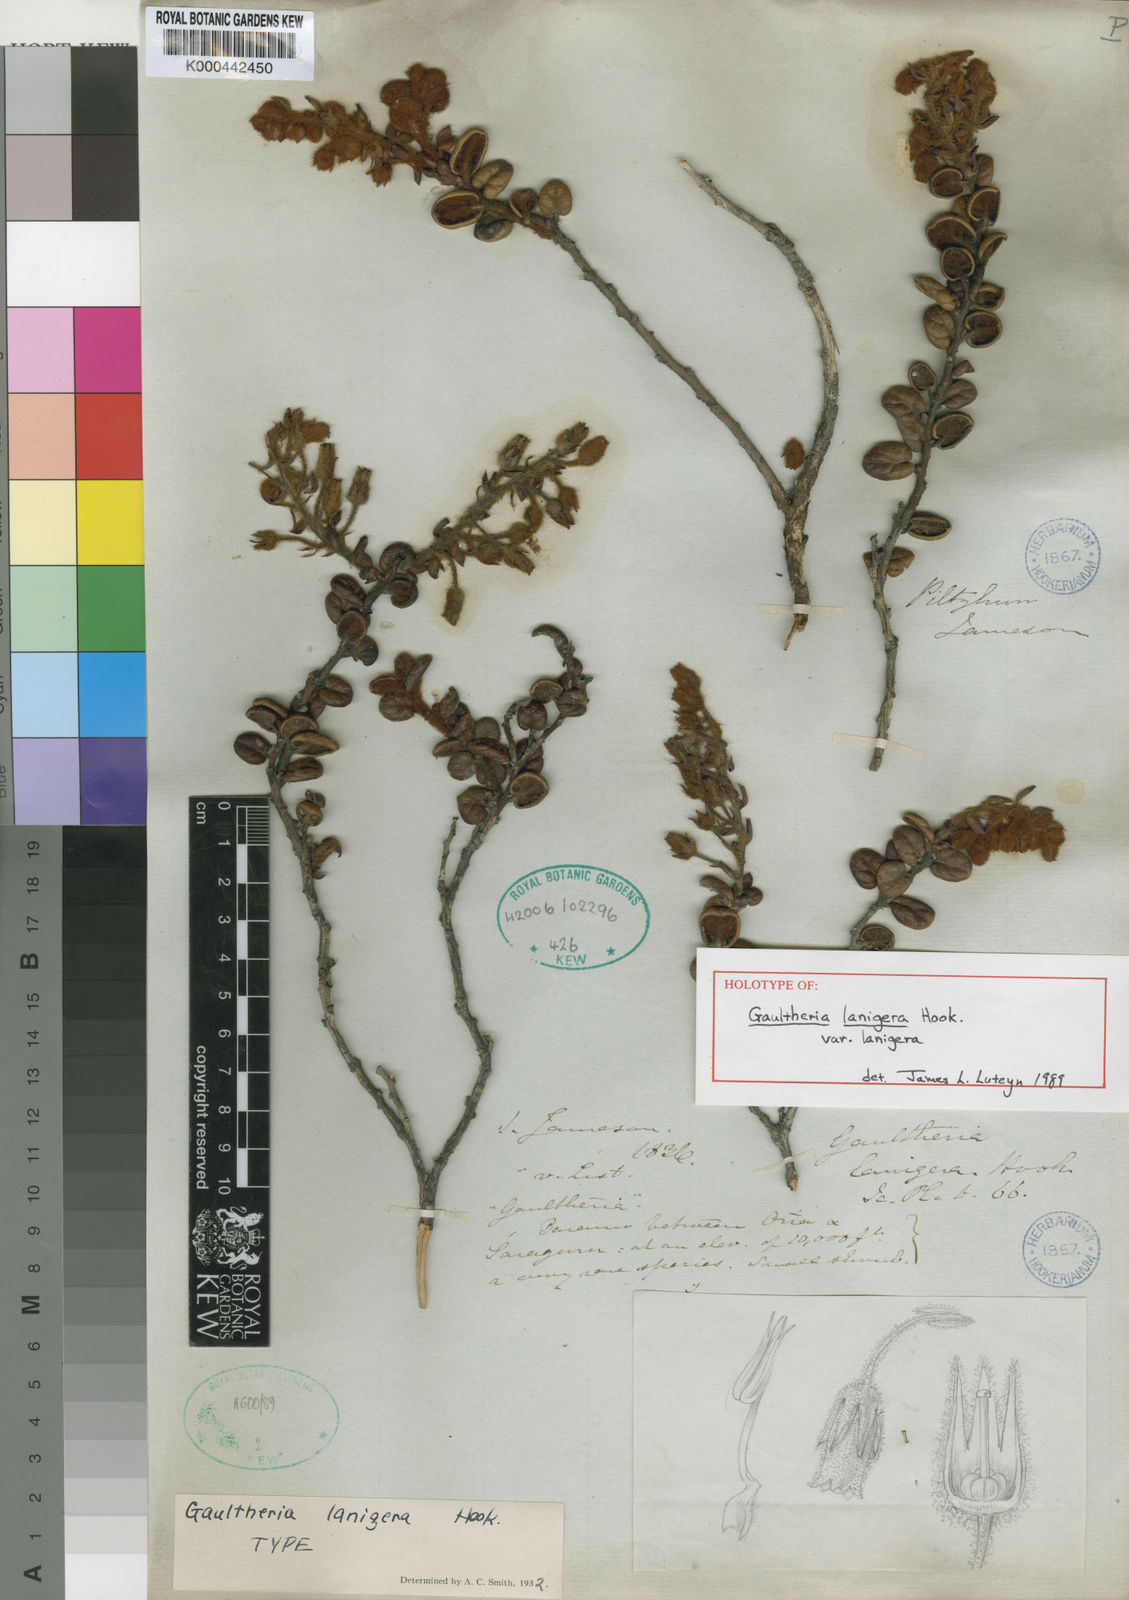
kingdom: Plantae
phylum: Tracheophyta
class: Magnoliopsida
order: Ericales
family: Ericaceae
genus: Gaultheria
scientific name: Gaultheria lanigera
